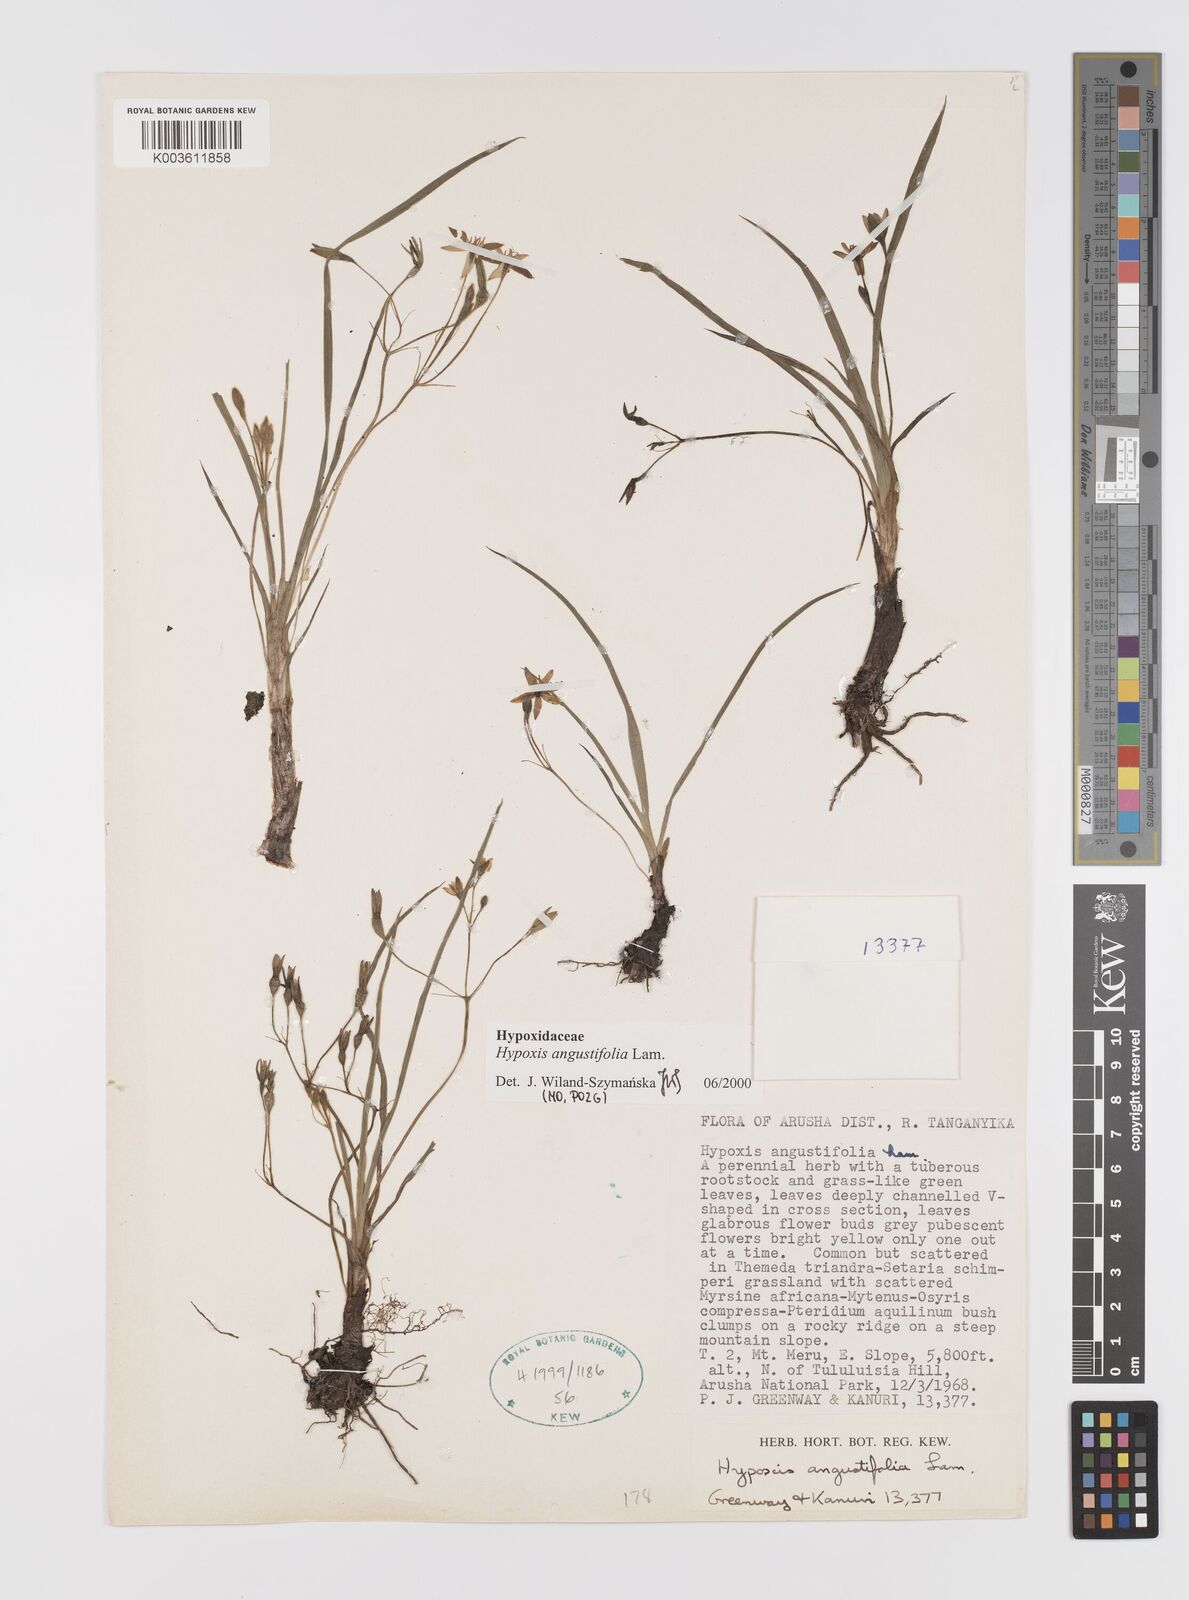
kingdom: Plantae
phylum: Tracheophyta
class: Liliopsida
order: Asparagales
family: Hypoxidaceae
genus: Hypoxis
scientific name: Hypoxis angustifolia
